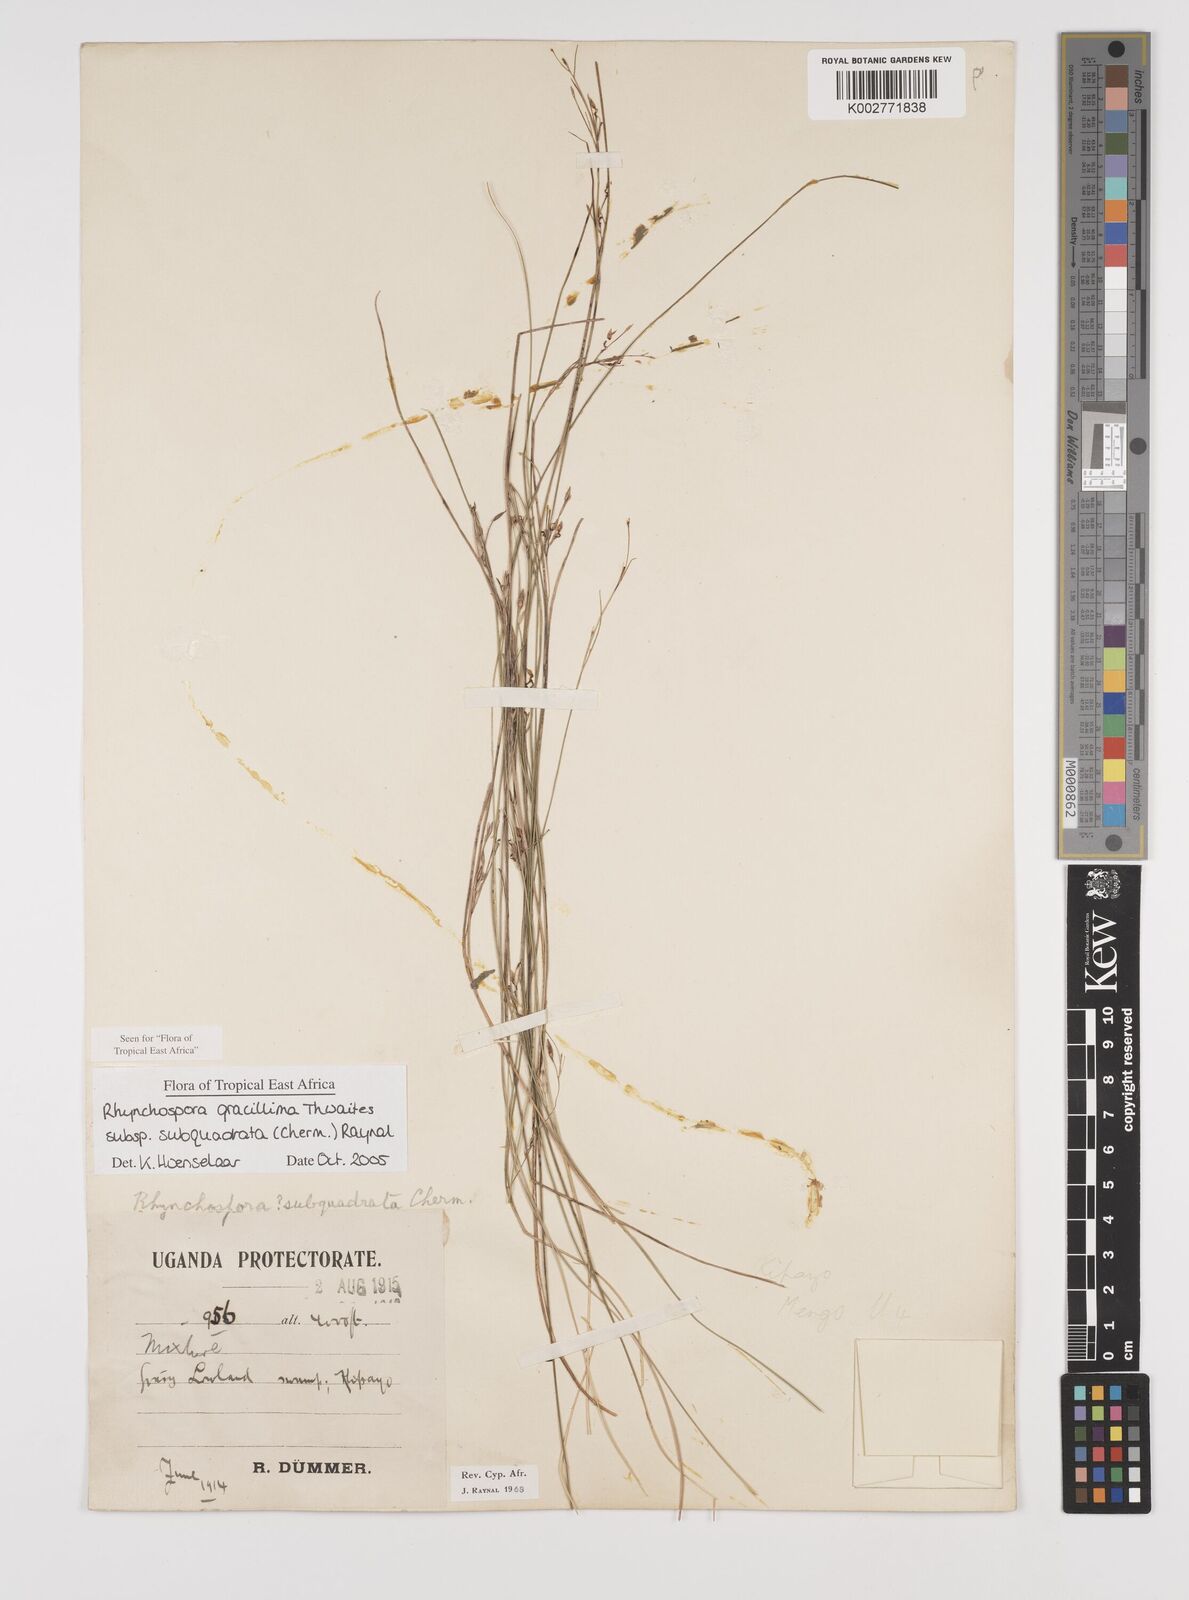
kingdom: Plantae
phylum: Tracheophyta
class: Liliopsida
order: Poales
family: Cyperaceae
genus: Rhynchospora
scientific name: Rhynchospora gracillima
